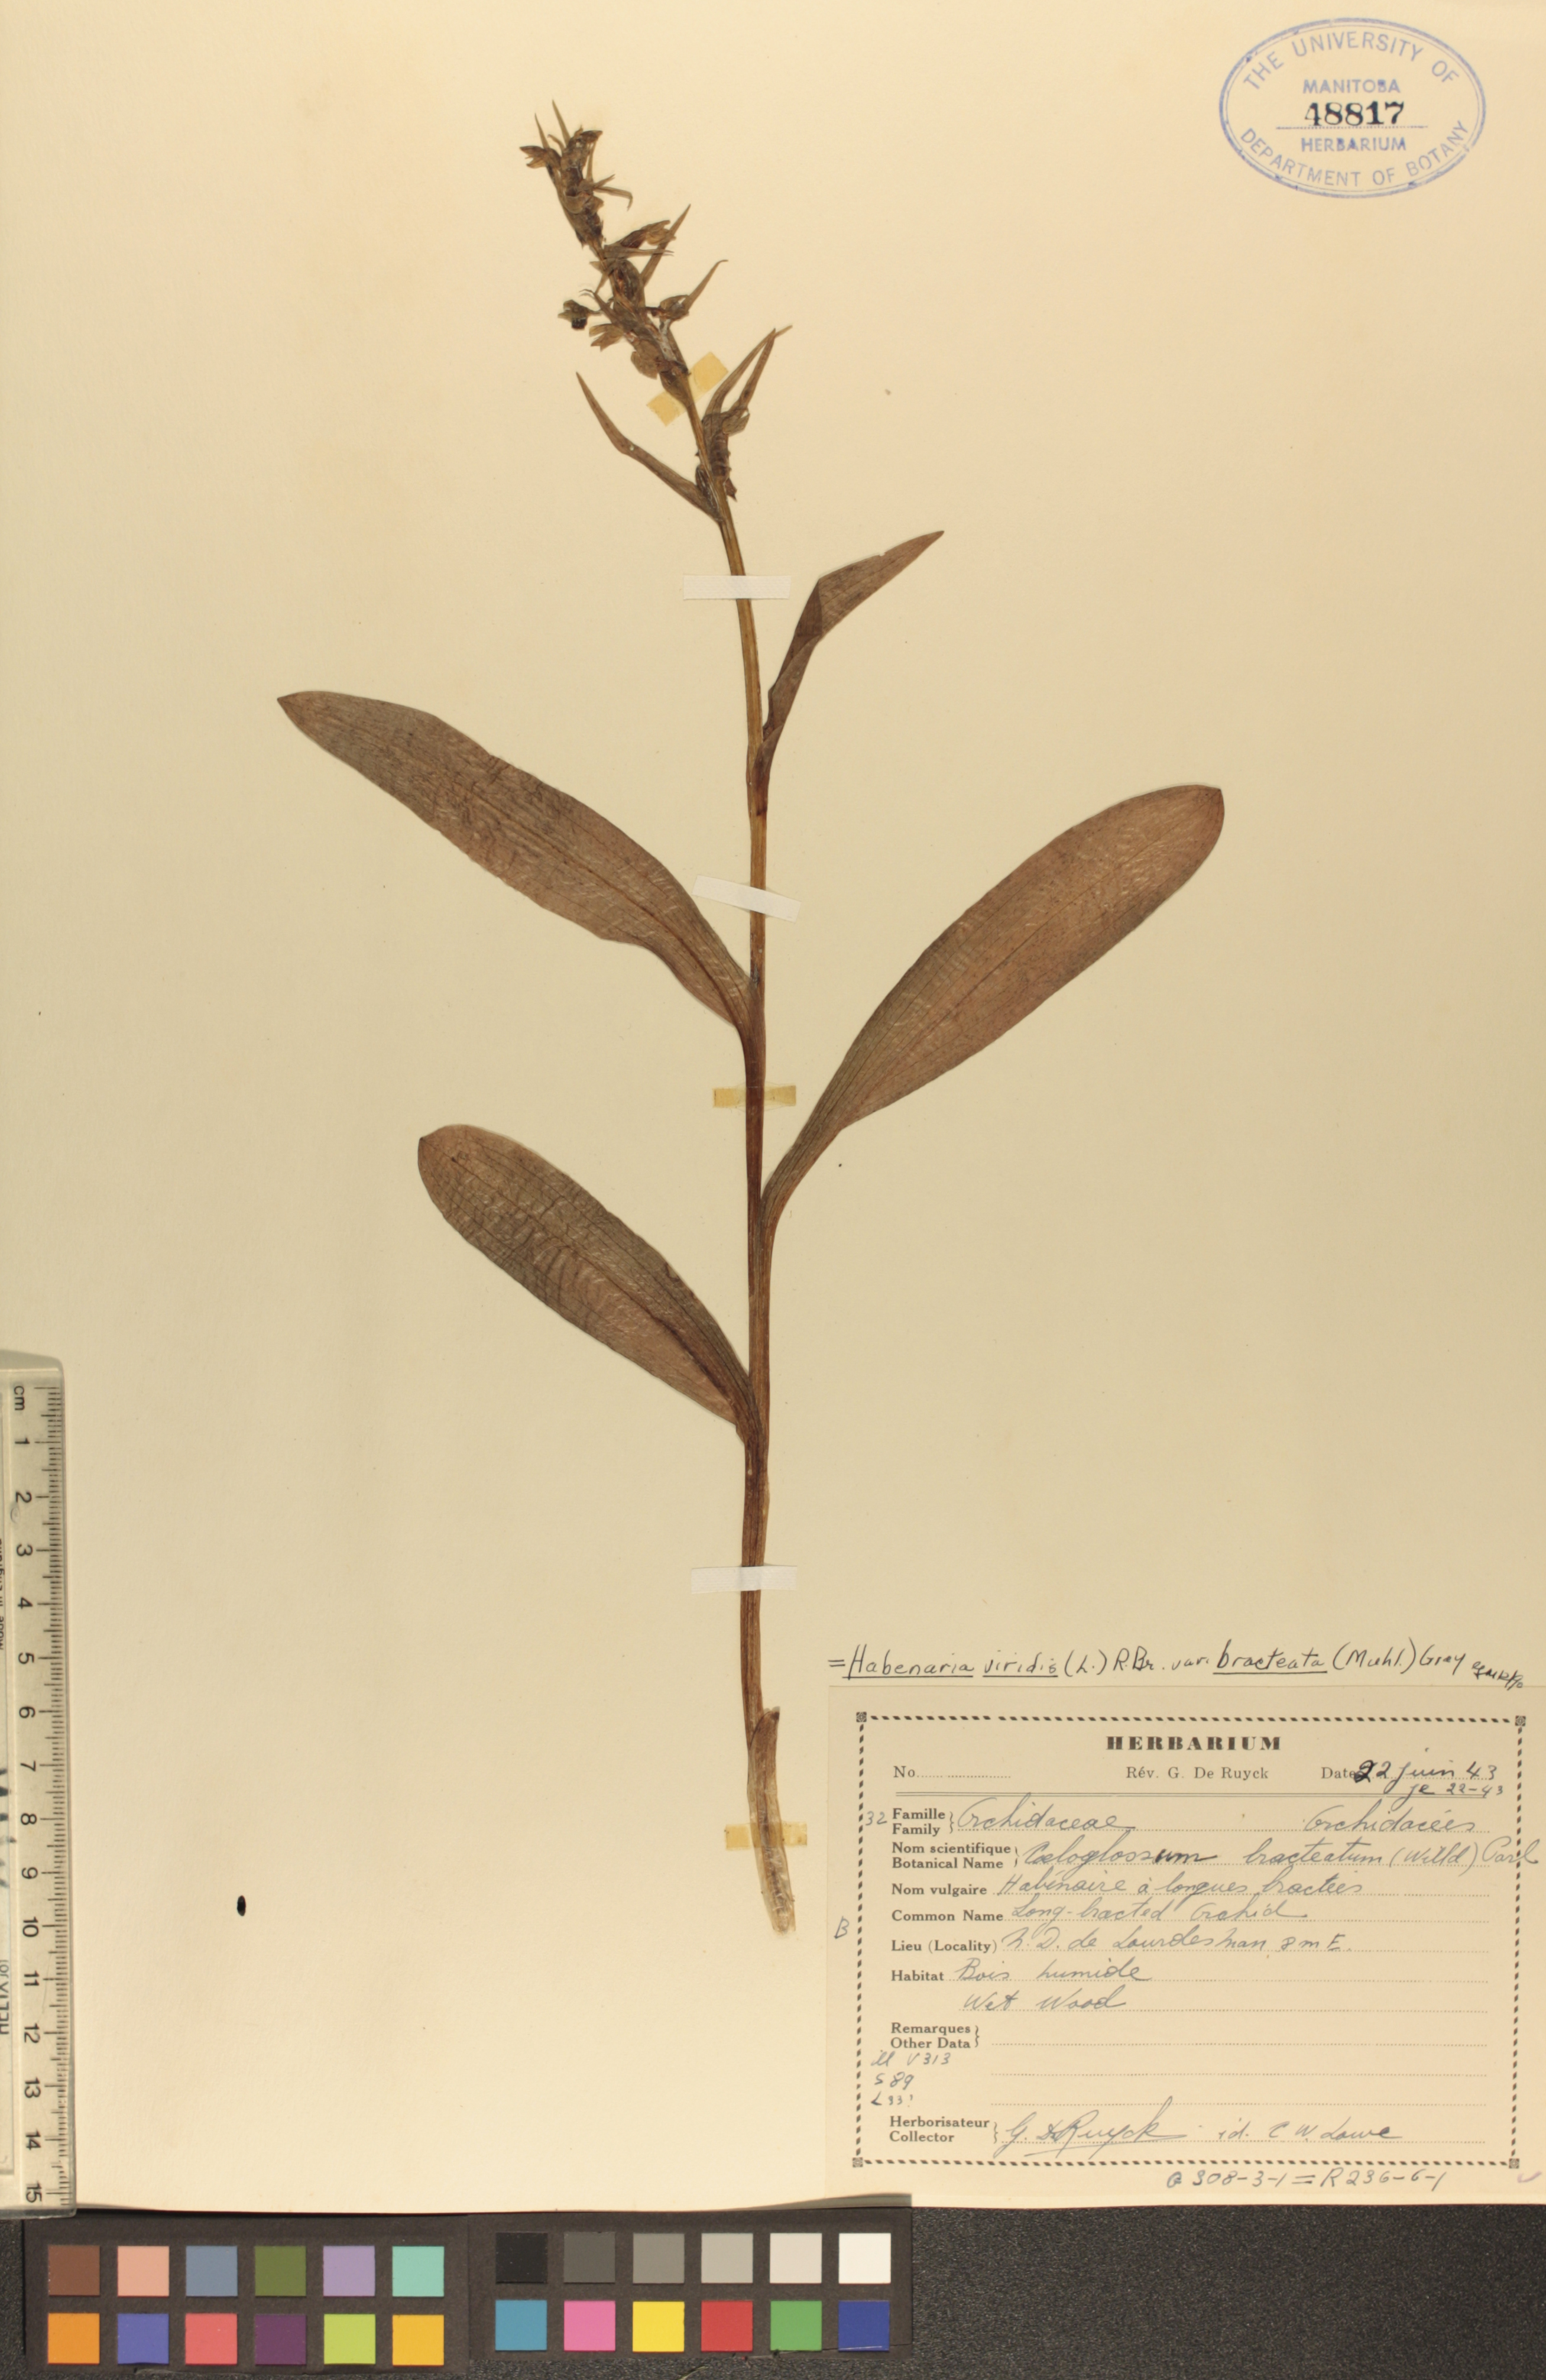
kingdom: Plantae
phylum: Tracheophyta
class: Liliopsida
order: Asparagales
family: Orchidaceae
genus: Dactylorhiza
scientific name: Dactylorhiza viridis
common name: Longbract frog orchid
